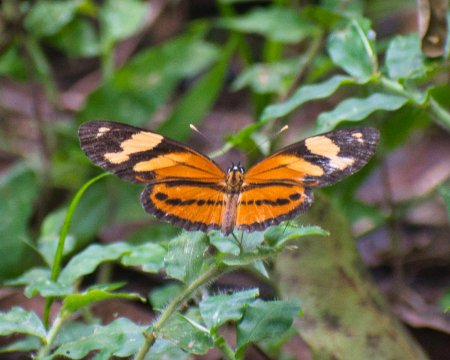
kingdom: Animalia
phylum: Arthropoda
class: Insecta
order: Lepidoptera
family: Nymphalidae
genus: Eresia
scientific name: Eresia eunice
